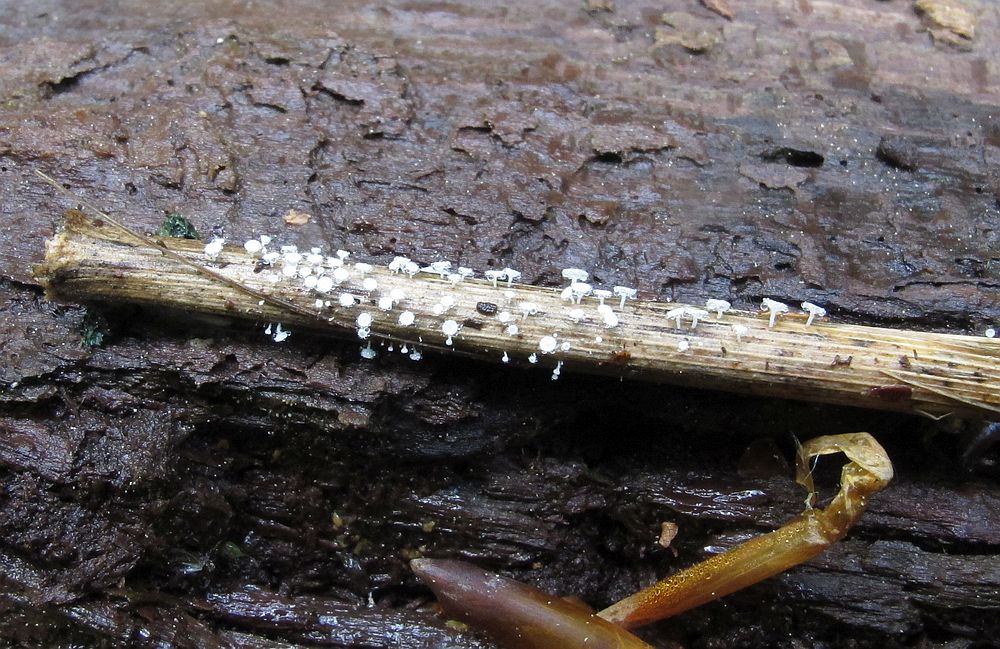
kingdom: Fungi
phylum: Ascomycota
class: Leotiomycetes
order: Helotiales
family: Lachnaceae
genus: Lachnum
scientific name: Lachnum tenuissimum
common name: spinkel frynseskive
